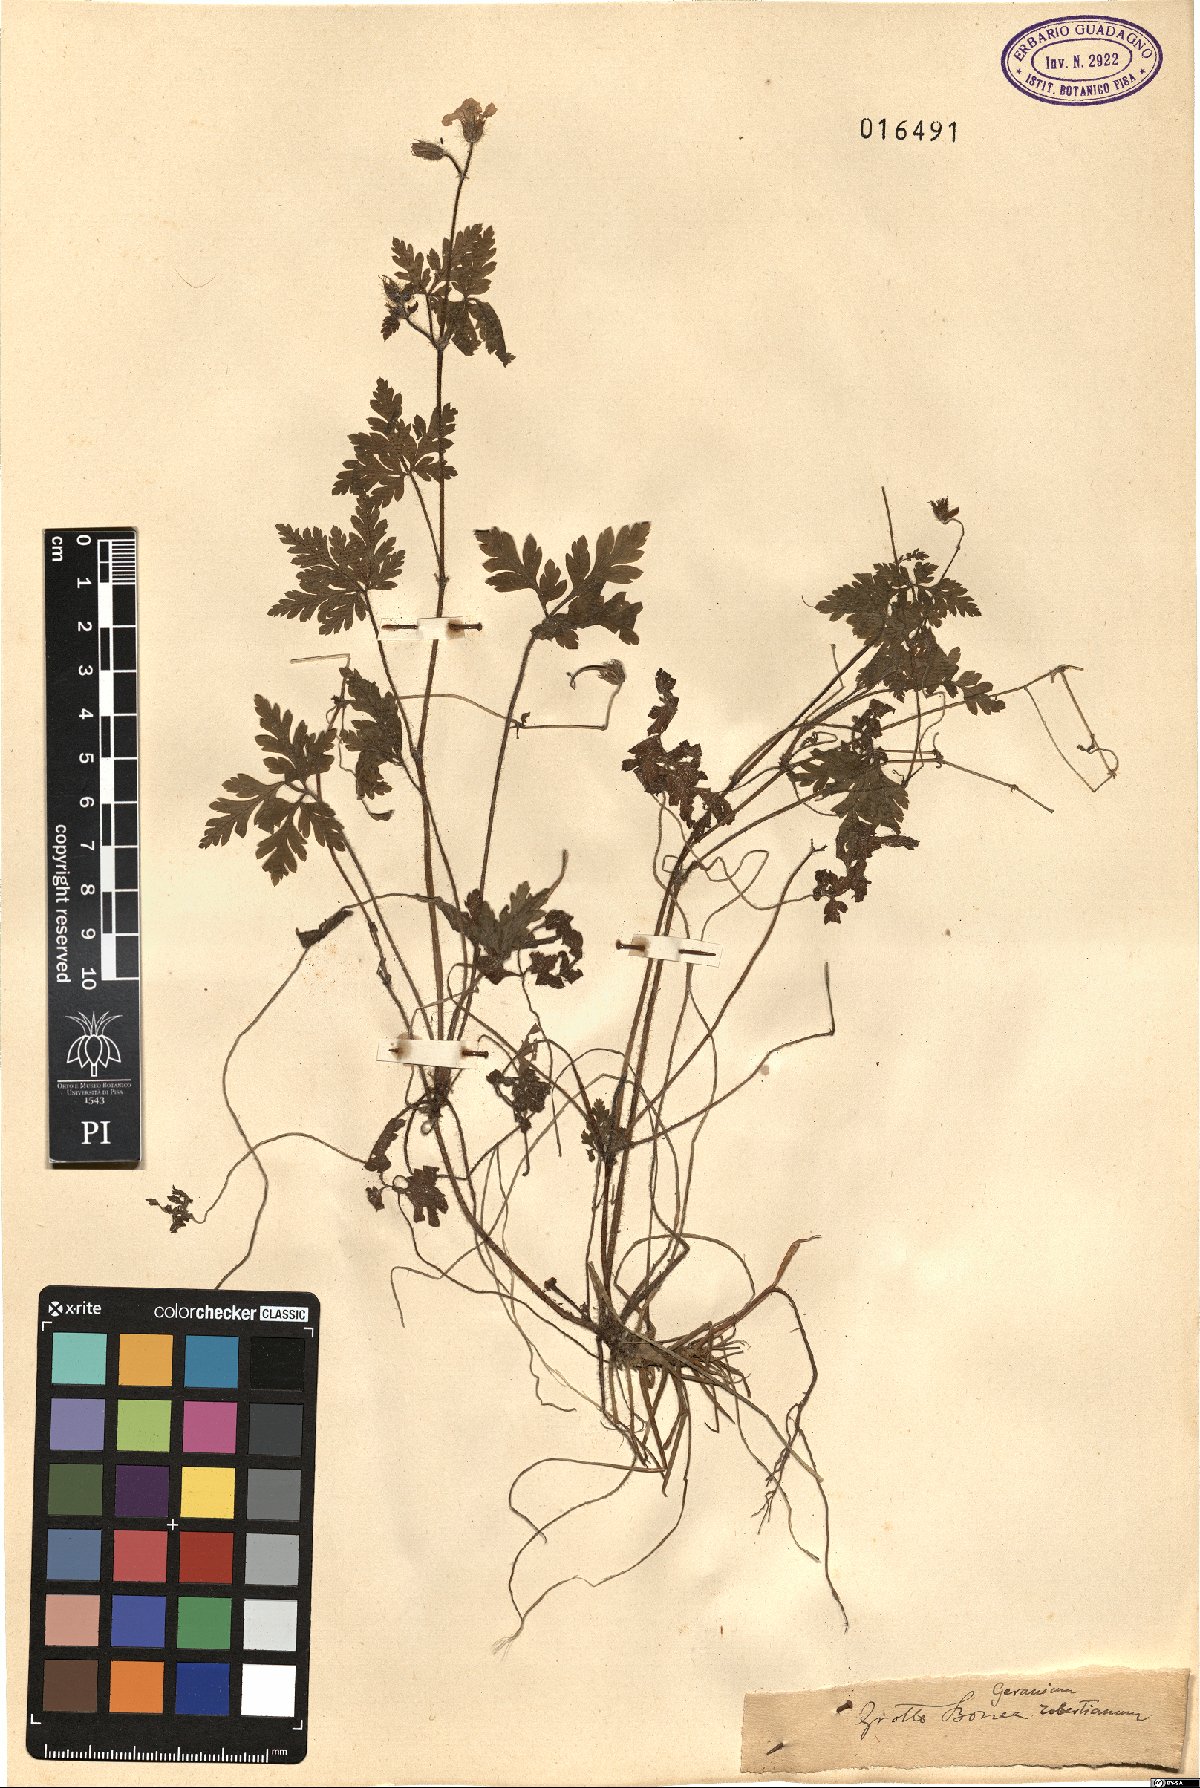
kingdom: Plantae
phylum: Tracheophyta
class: Magnoliopsida
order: Geraniales
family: Geraniaceae
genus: Geranium
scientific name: Geranium robertianum
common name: Herb-robert
